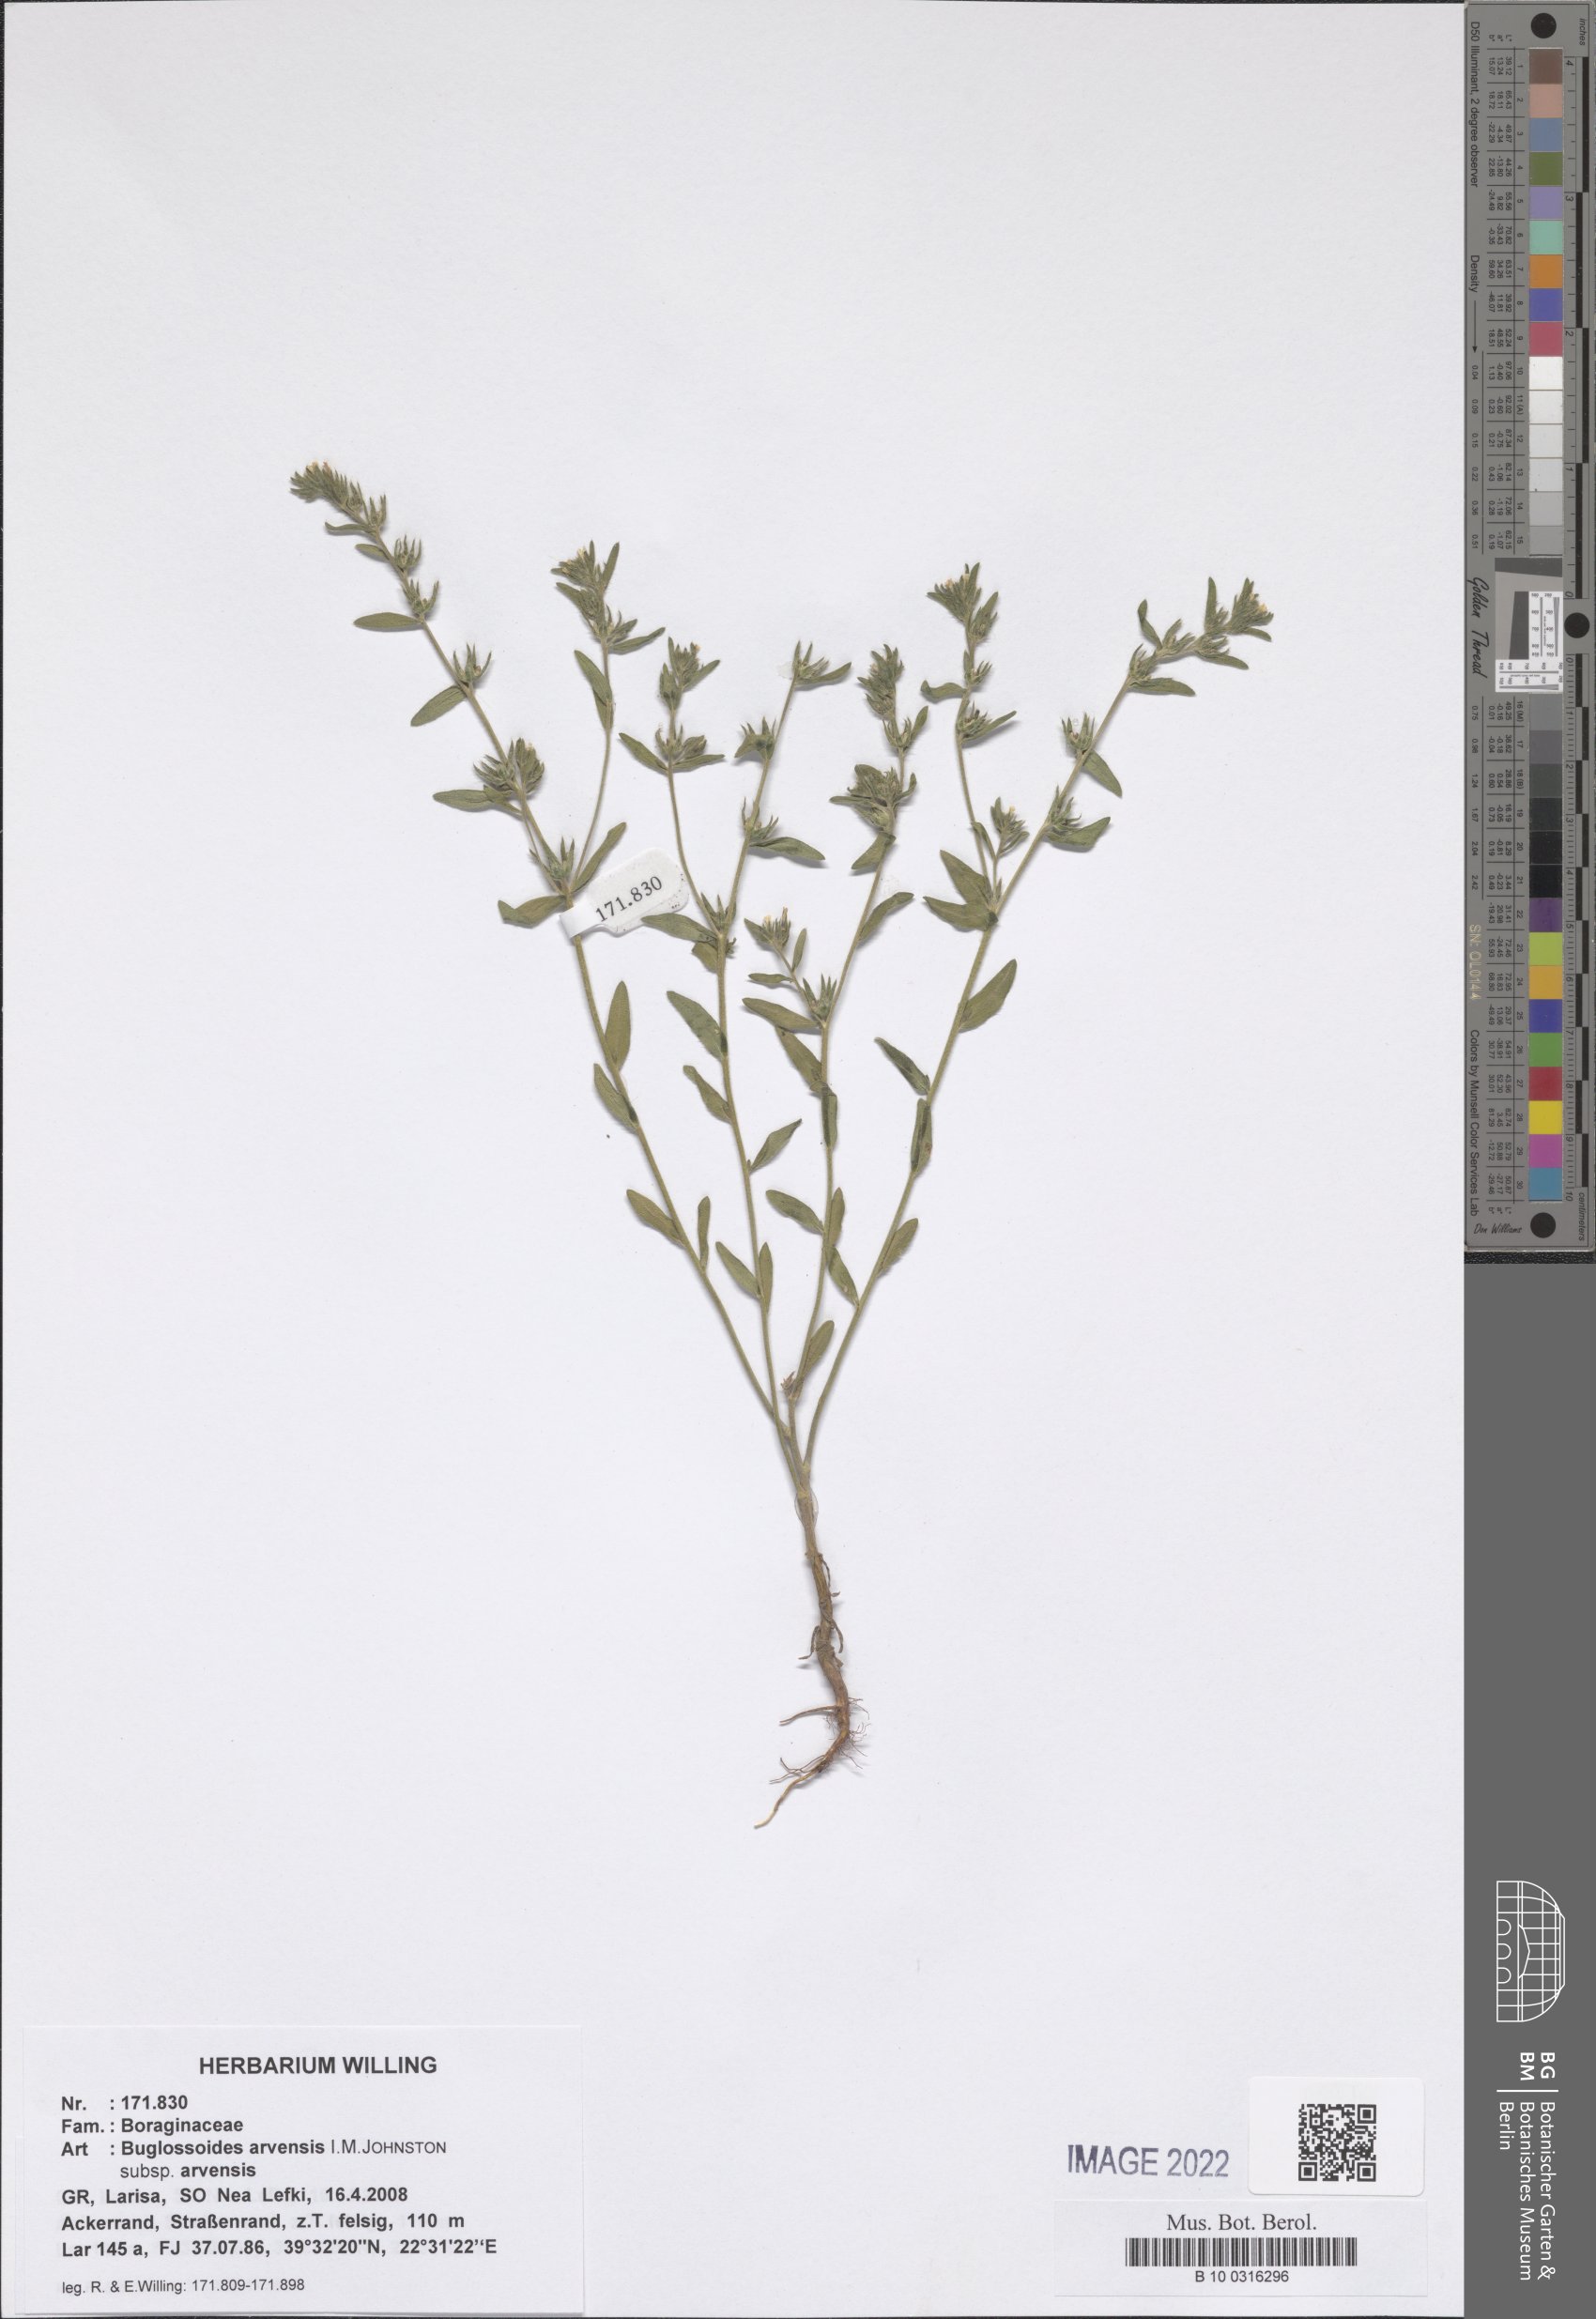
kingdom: Plantae
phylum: Tracheophyta
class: Magnoliopsida
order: Boraginales
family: Boraginaceae
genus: Buglossoides
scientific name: Buglossoides arvensis
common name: Corn gromwell
